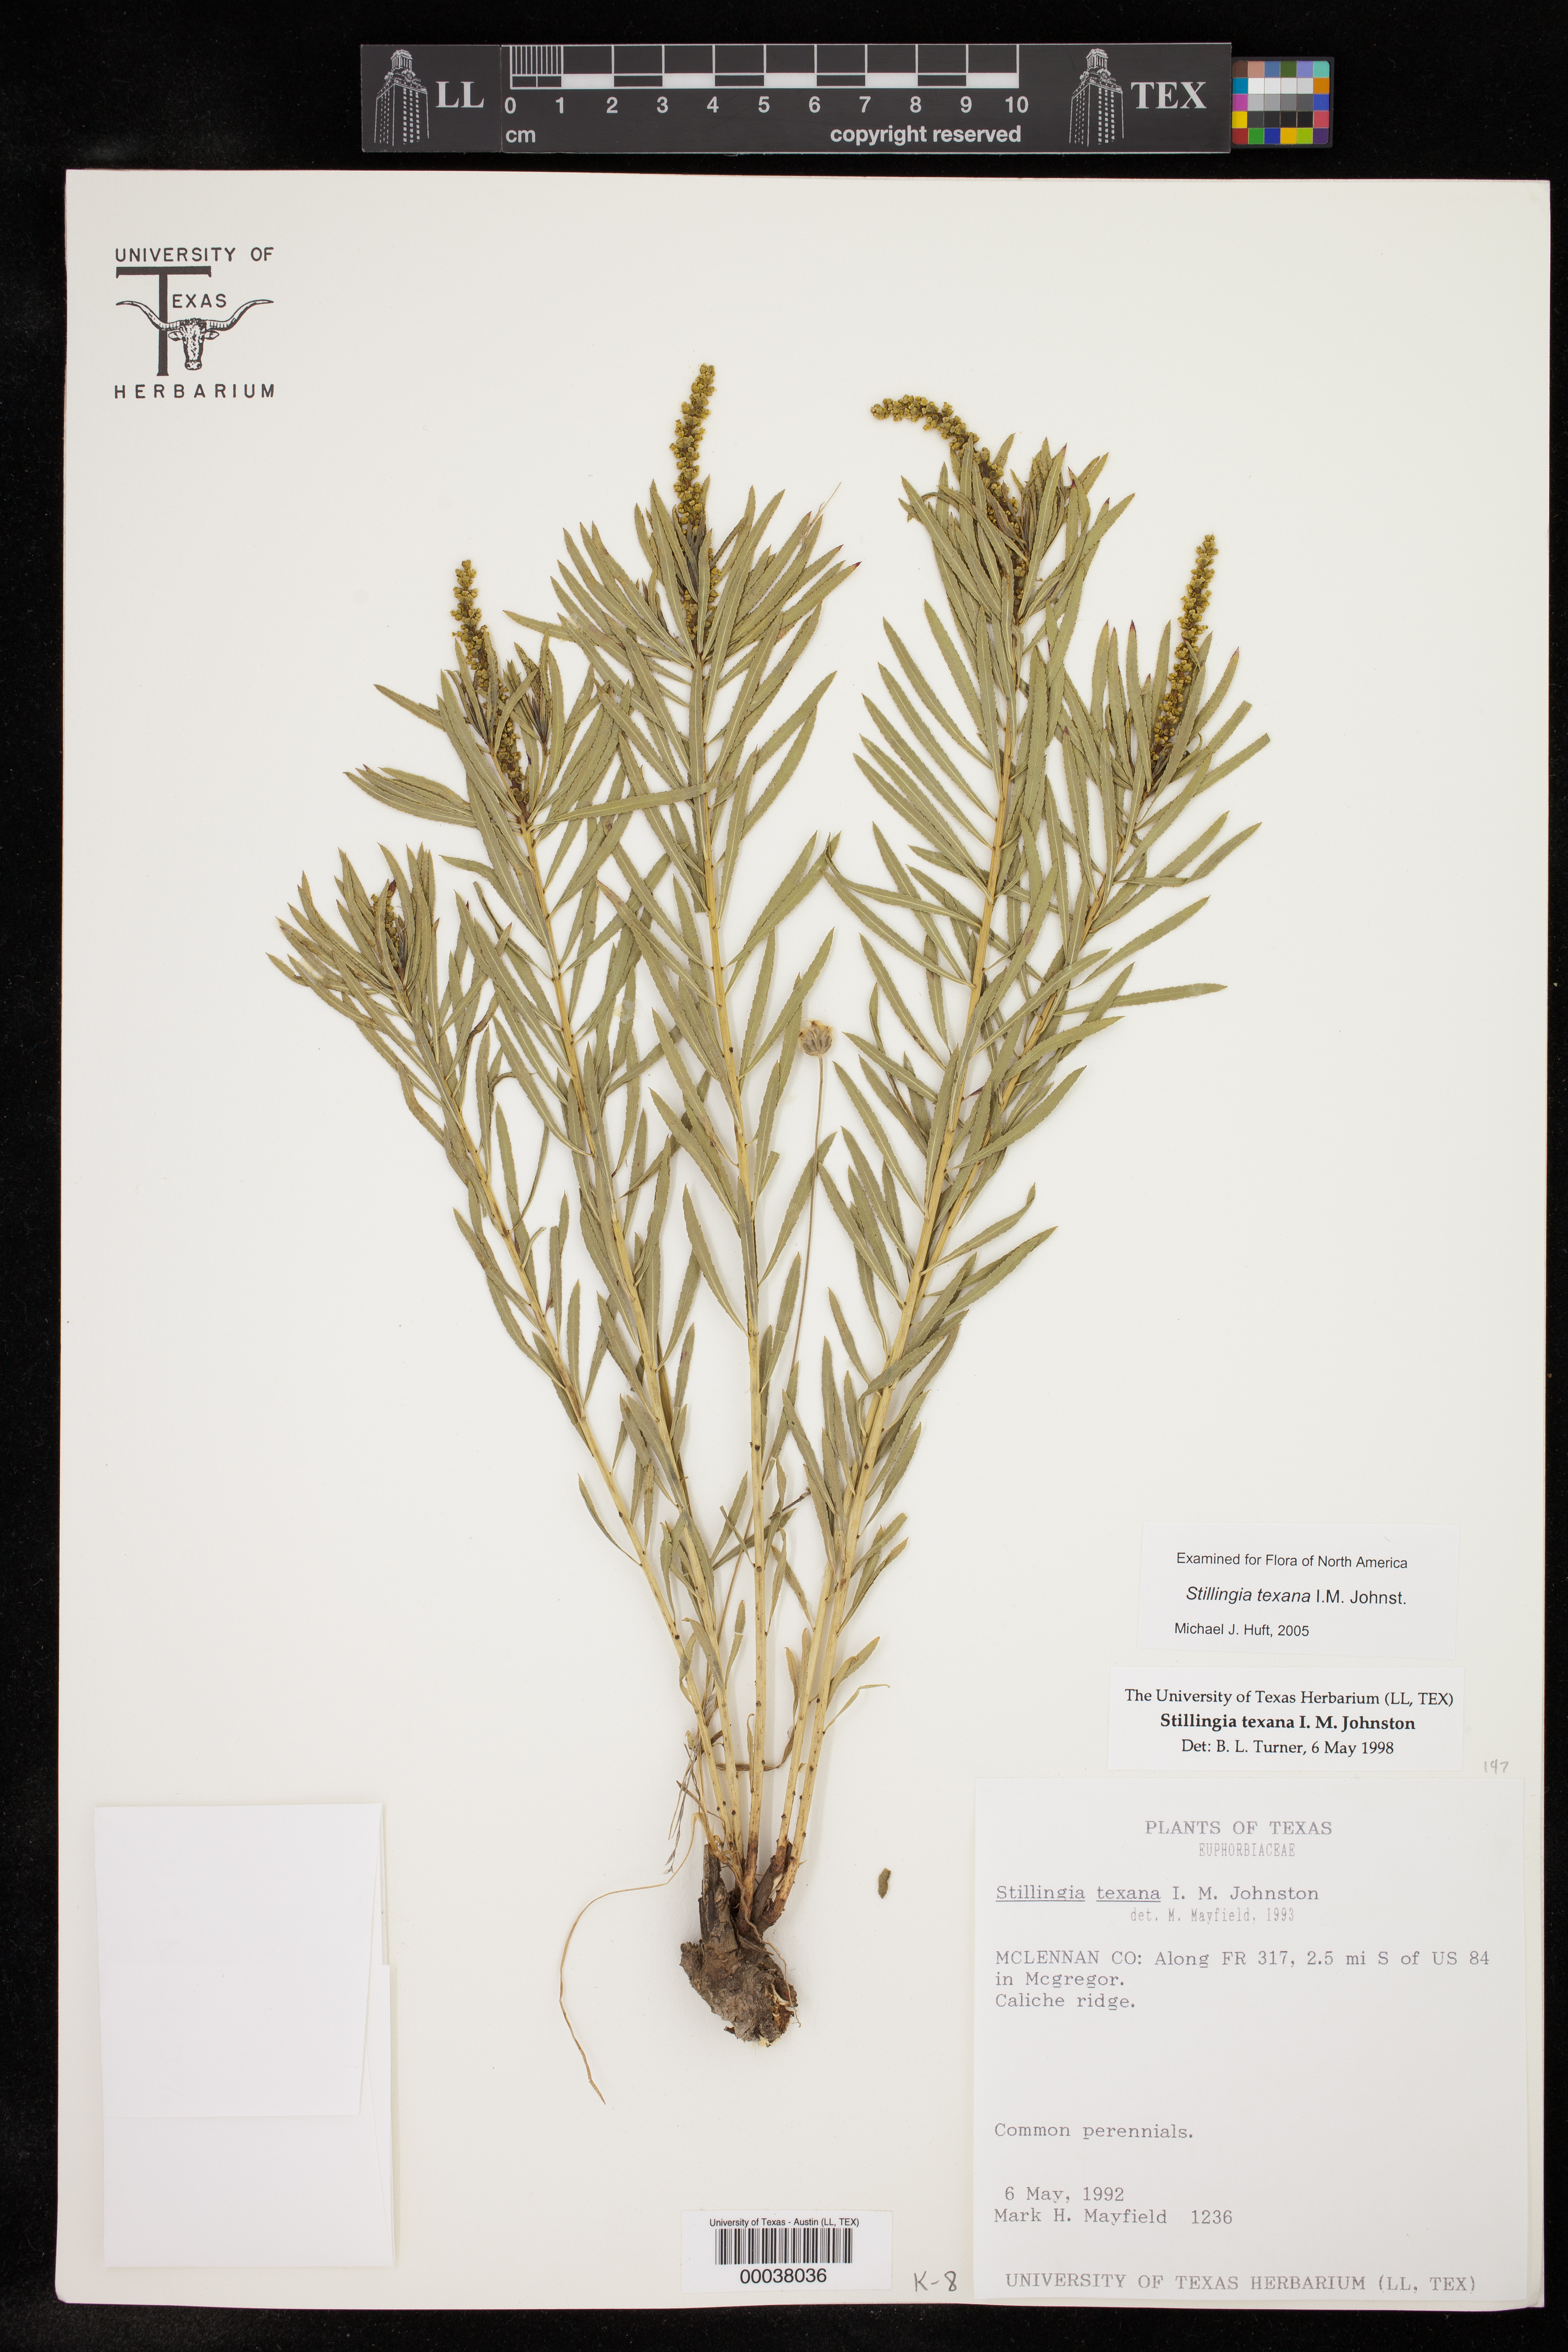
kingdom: Plantae
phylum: Tracheophyta
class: Magnoliopsida
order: Malpighiales
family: Euphorbiaceae
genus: Stillingia
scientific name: Stillingia texana
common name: Texas stillingia
